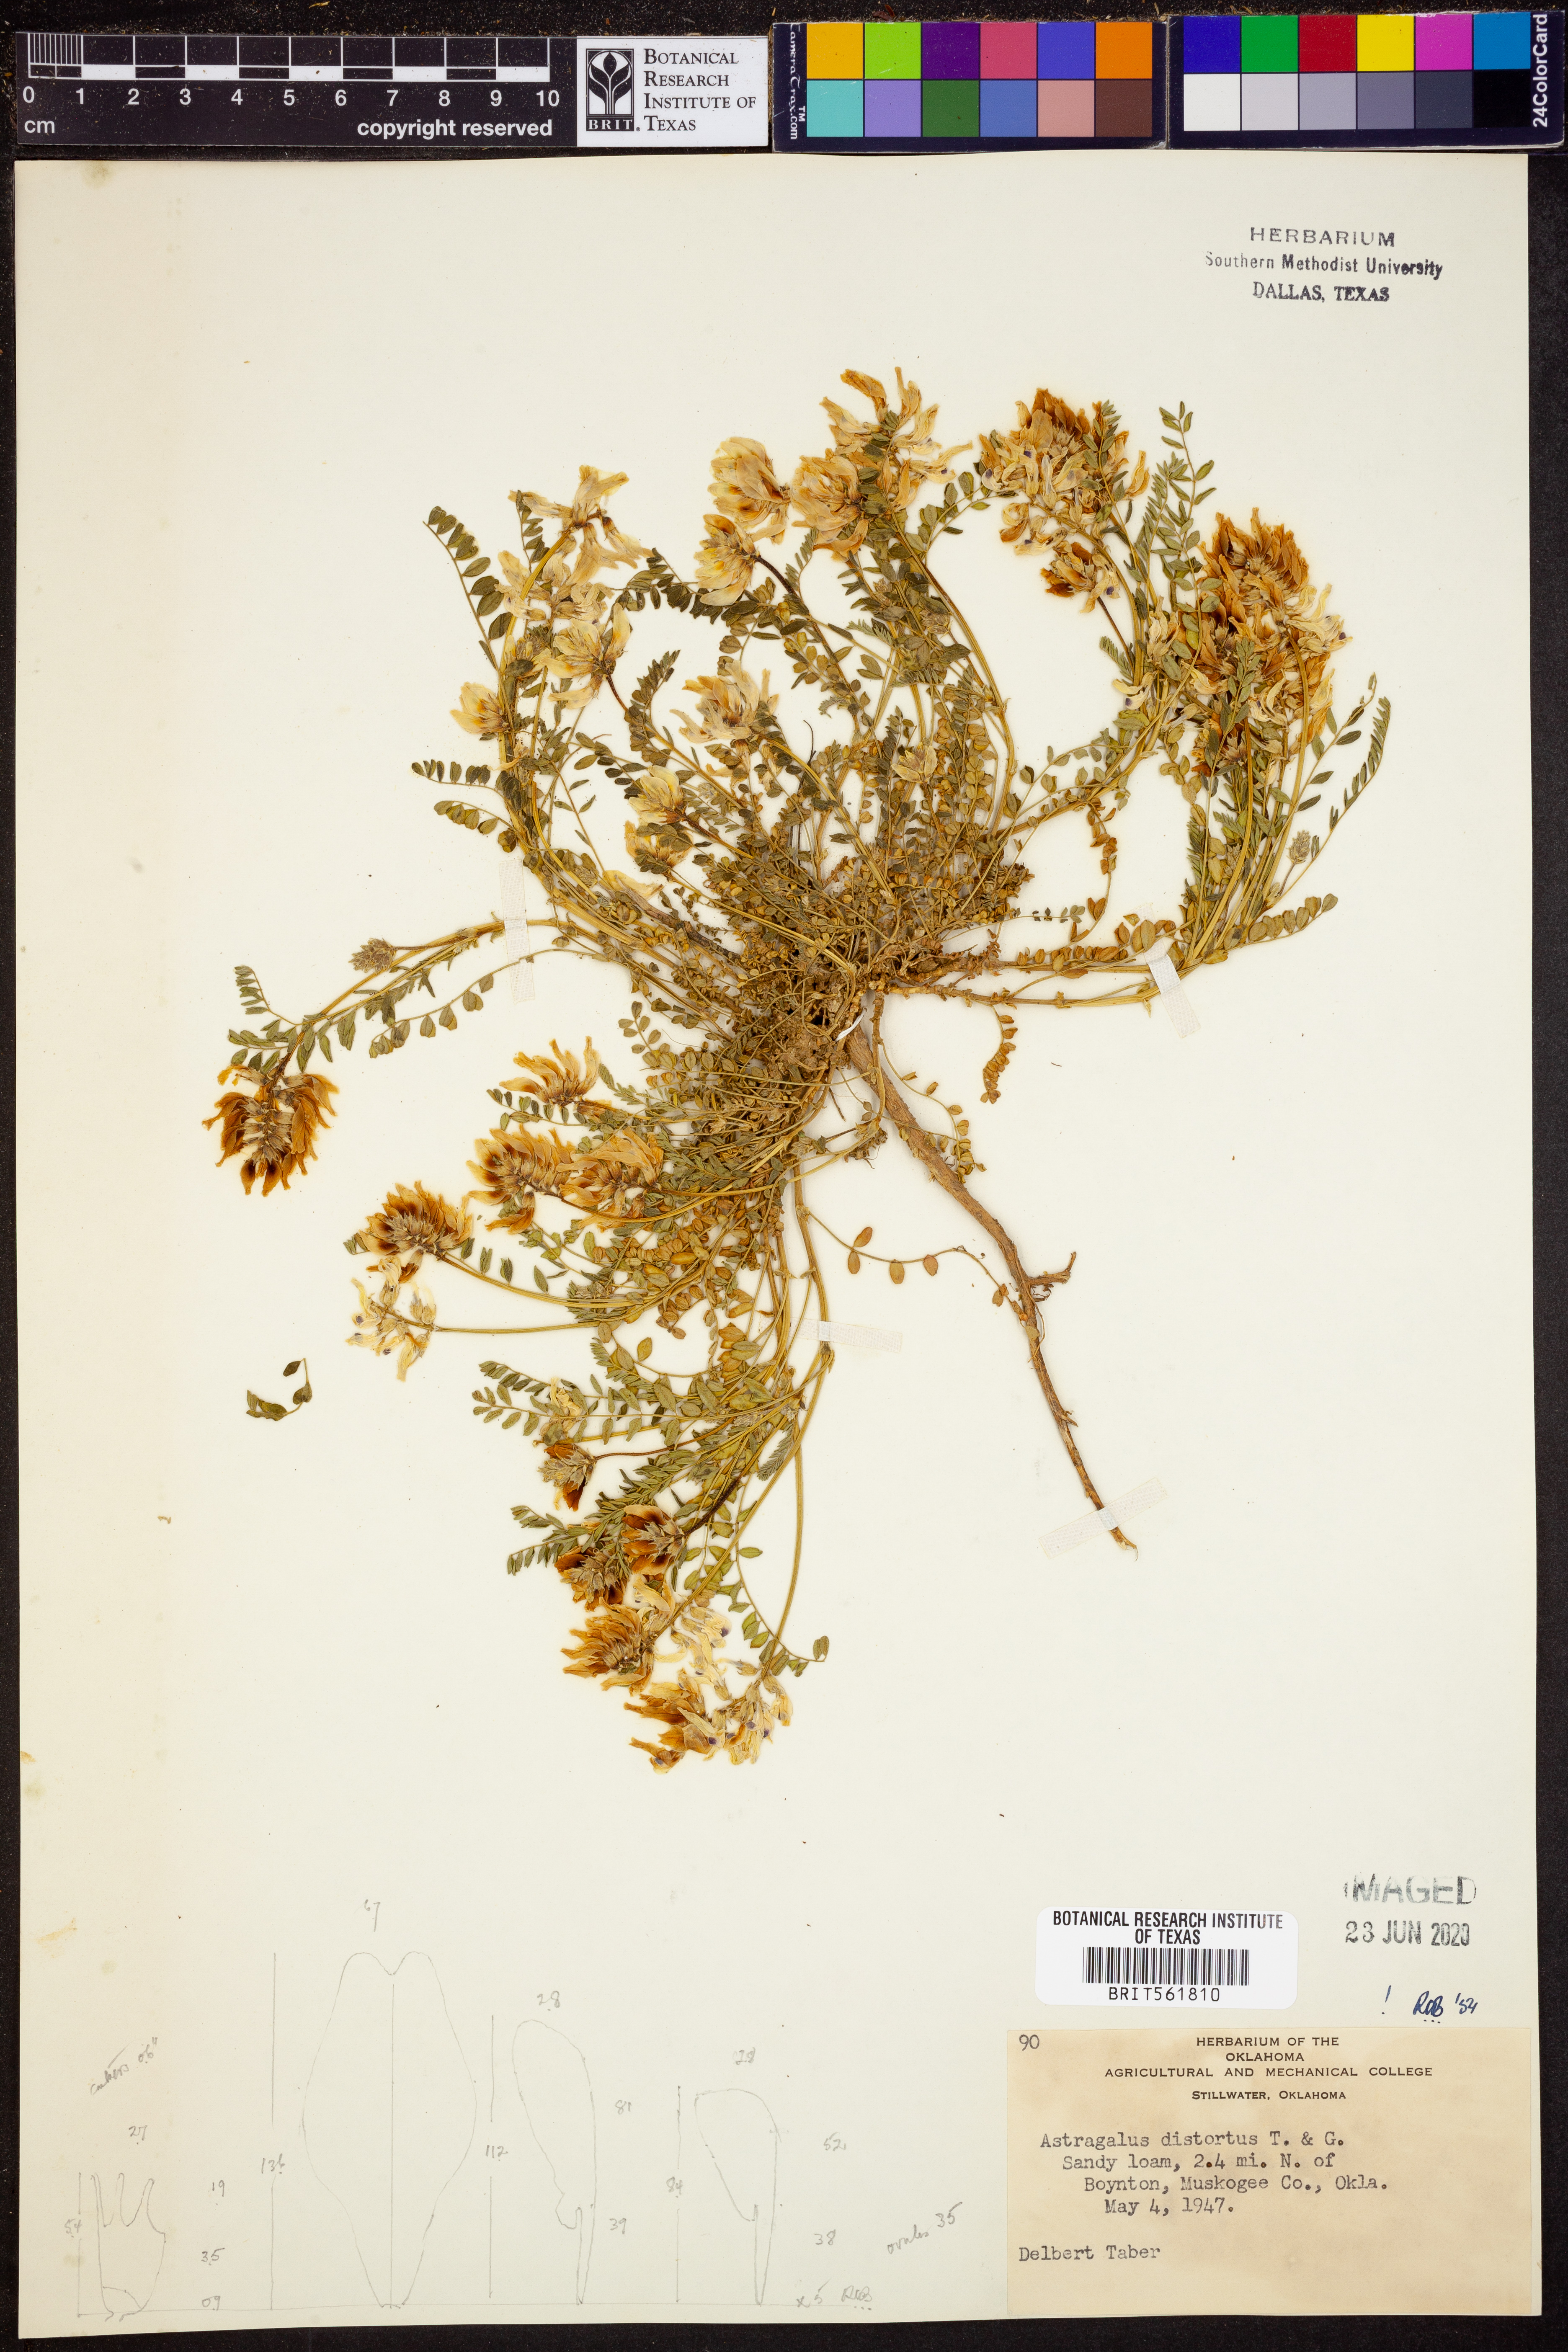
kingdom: Plantae
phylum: Tracheophyta
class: Magnoliopsida
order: Fabales
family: Fabaceae
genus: Astragalus
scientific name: Astragalus distortus
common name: Ozark milk-vetch
